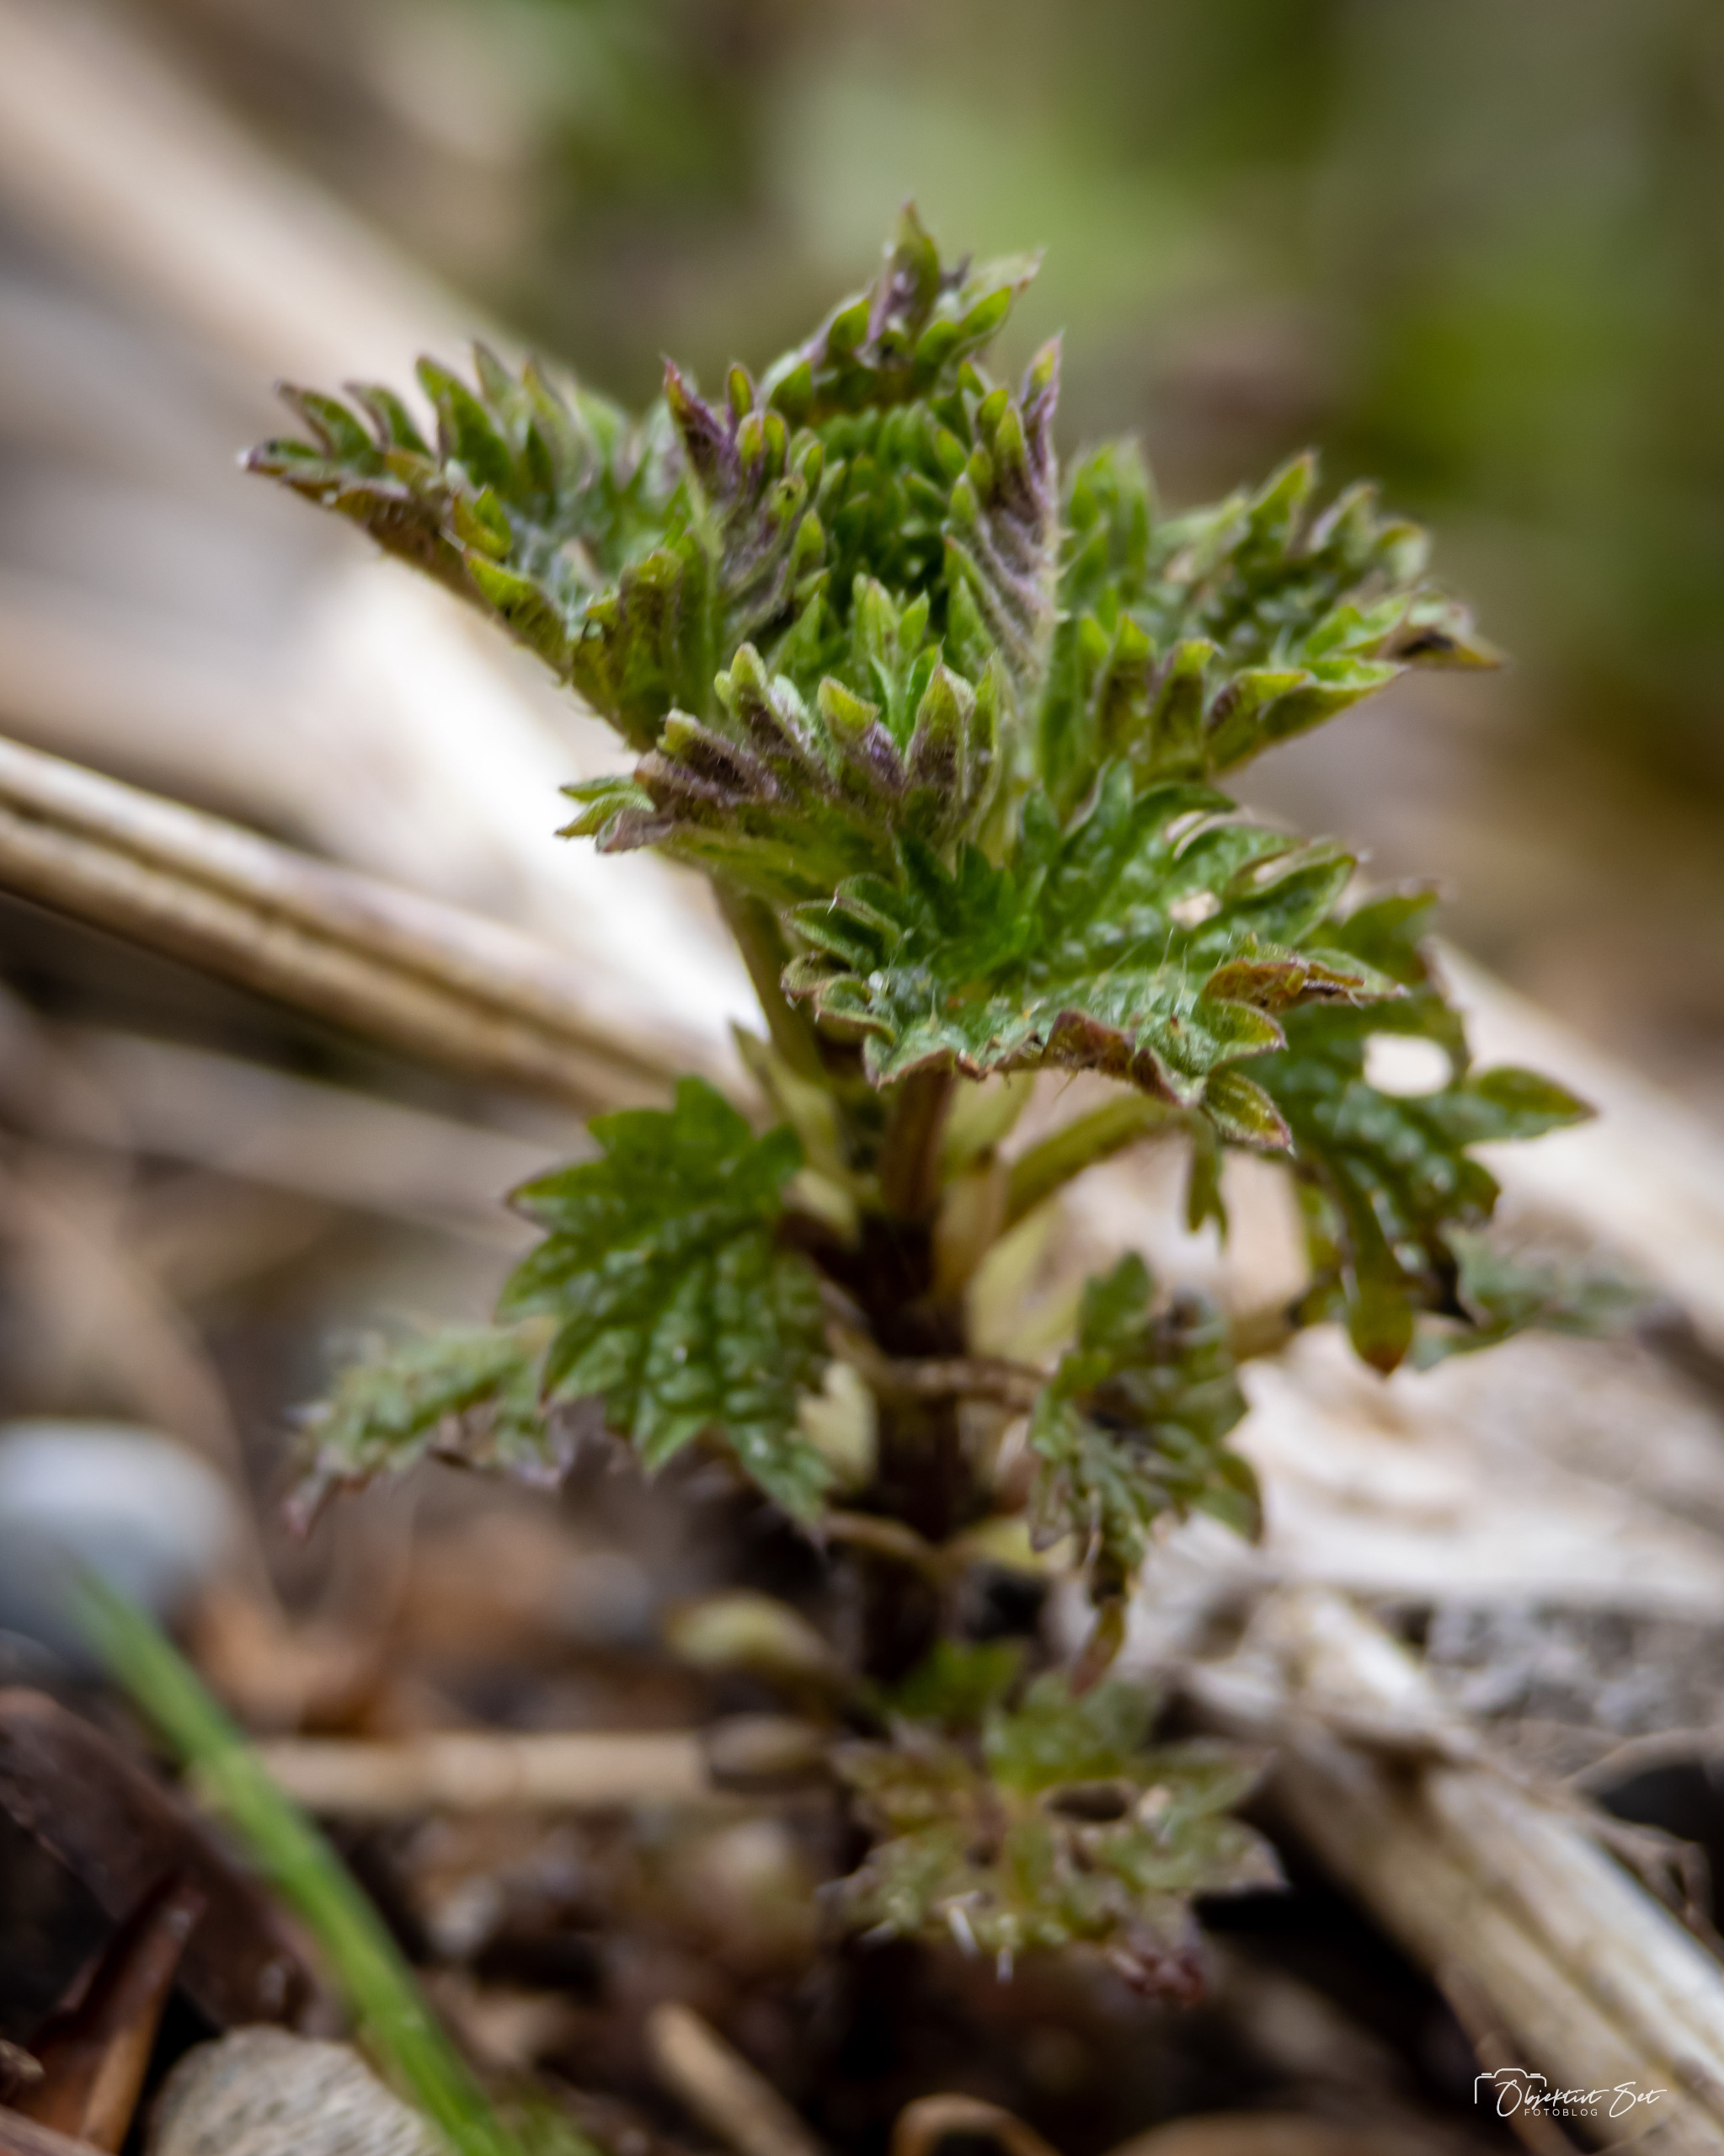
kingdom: Plantae
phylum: Tracheophyta
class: Magnoliopsida
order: Rosales
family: Urticaceae
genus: Urtica
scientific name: Urtica dioica
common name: Stor nælde
